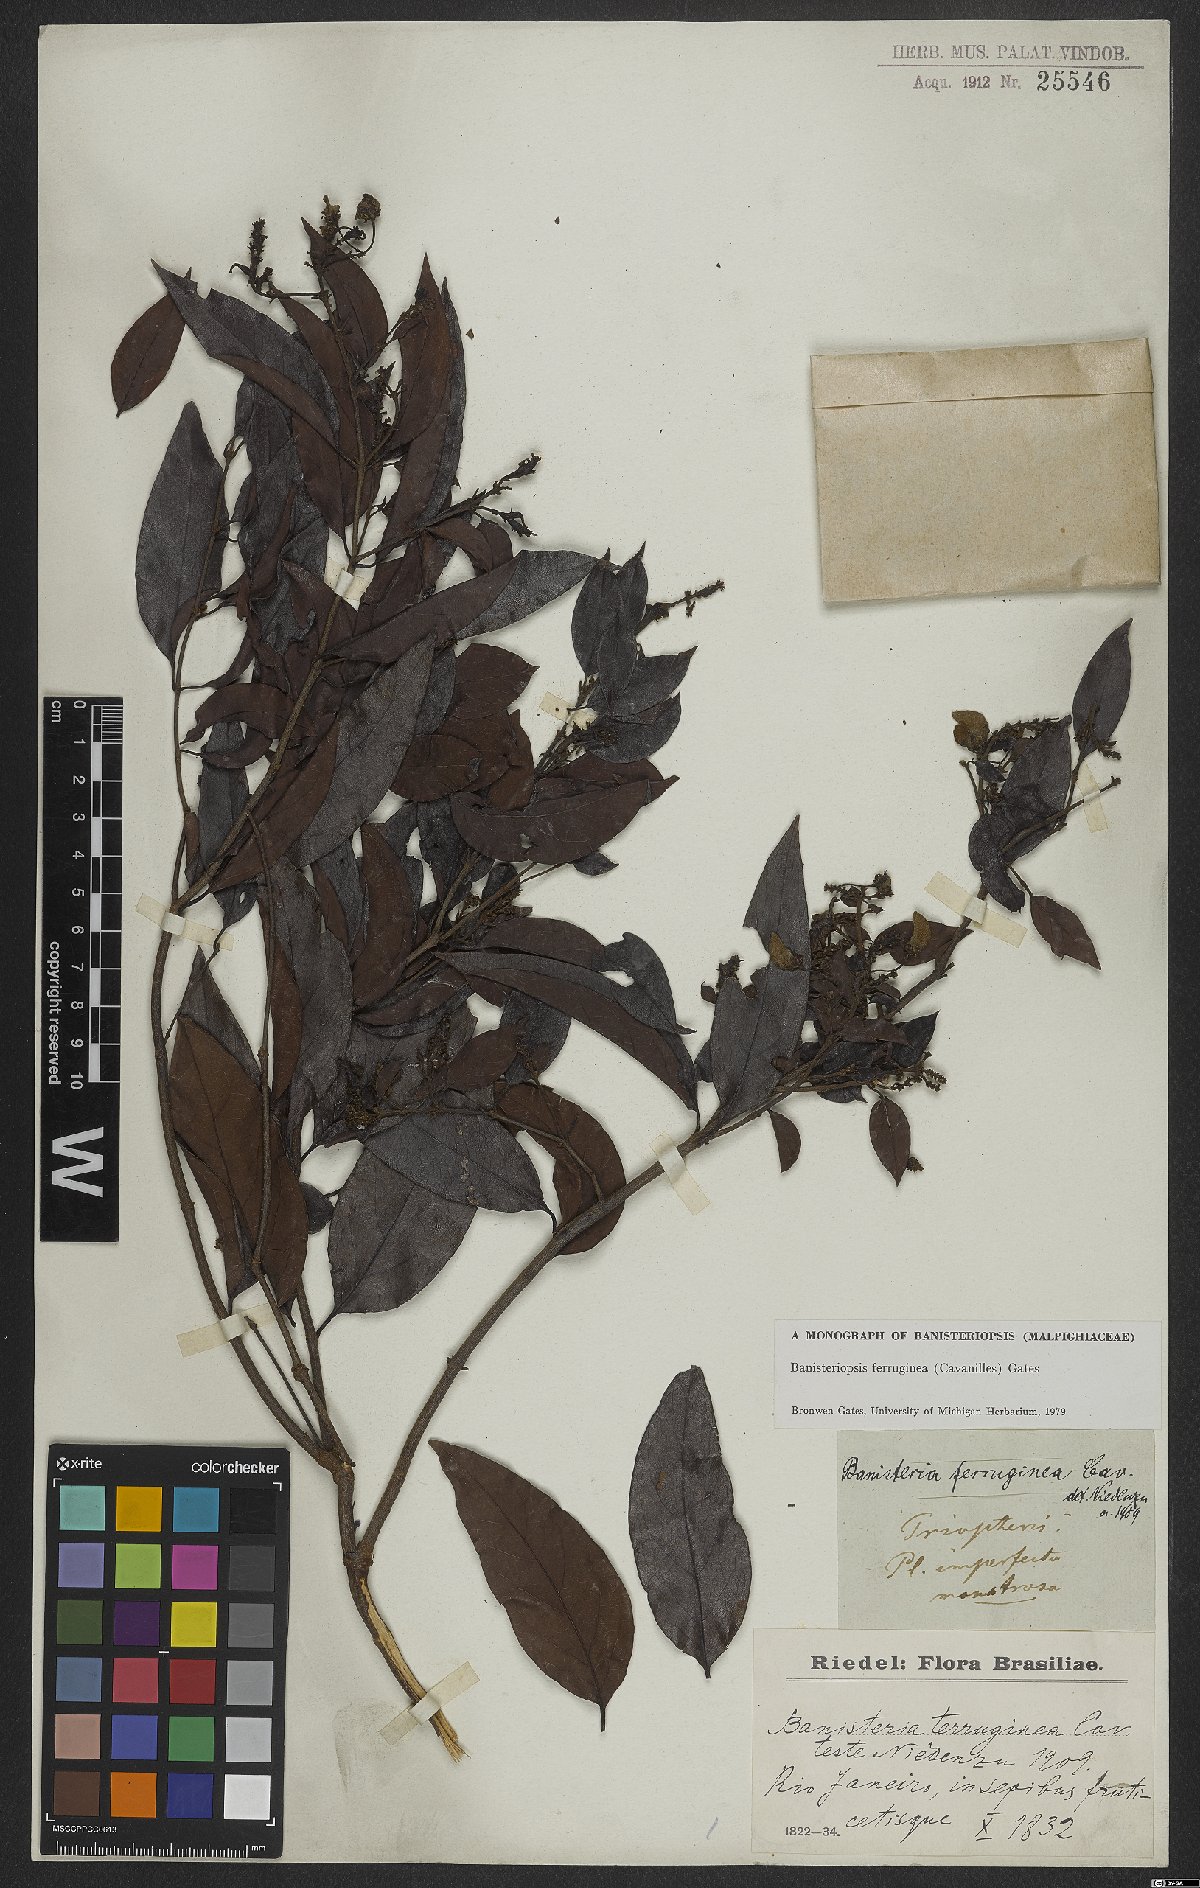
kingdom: Plantae
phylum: Tracheophyta
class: Magnoliopsida
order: Malpighiales
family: Malpighiaceae
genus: Bronwenia
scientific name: Bronwenia ferruginea
